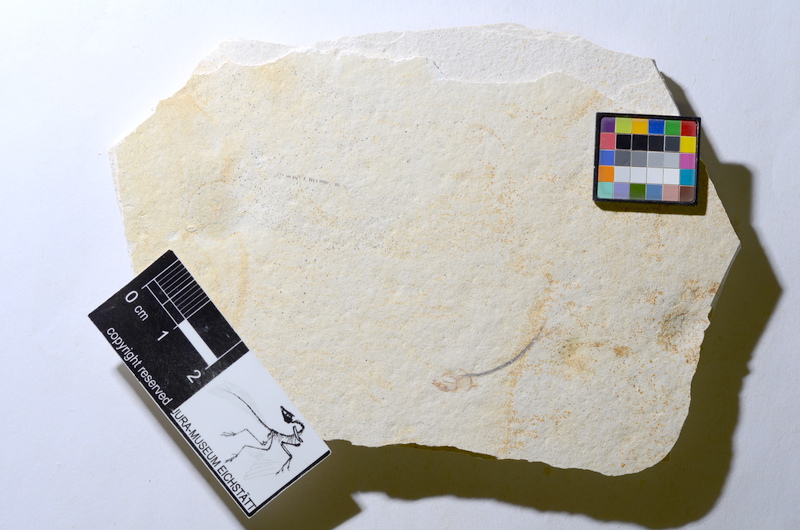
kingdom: Animalia
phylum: Chordata
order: Salmoniformes
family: Orthogonikleithridae
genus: Orthogonikleithrus
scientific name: Orthogonikleithrus hoelli
